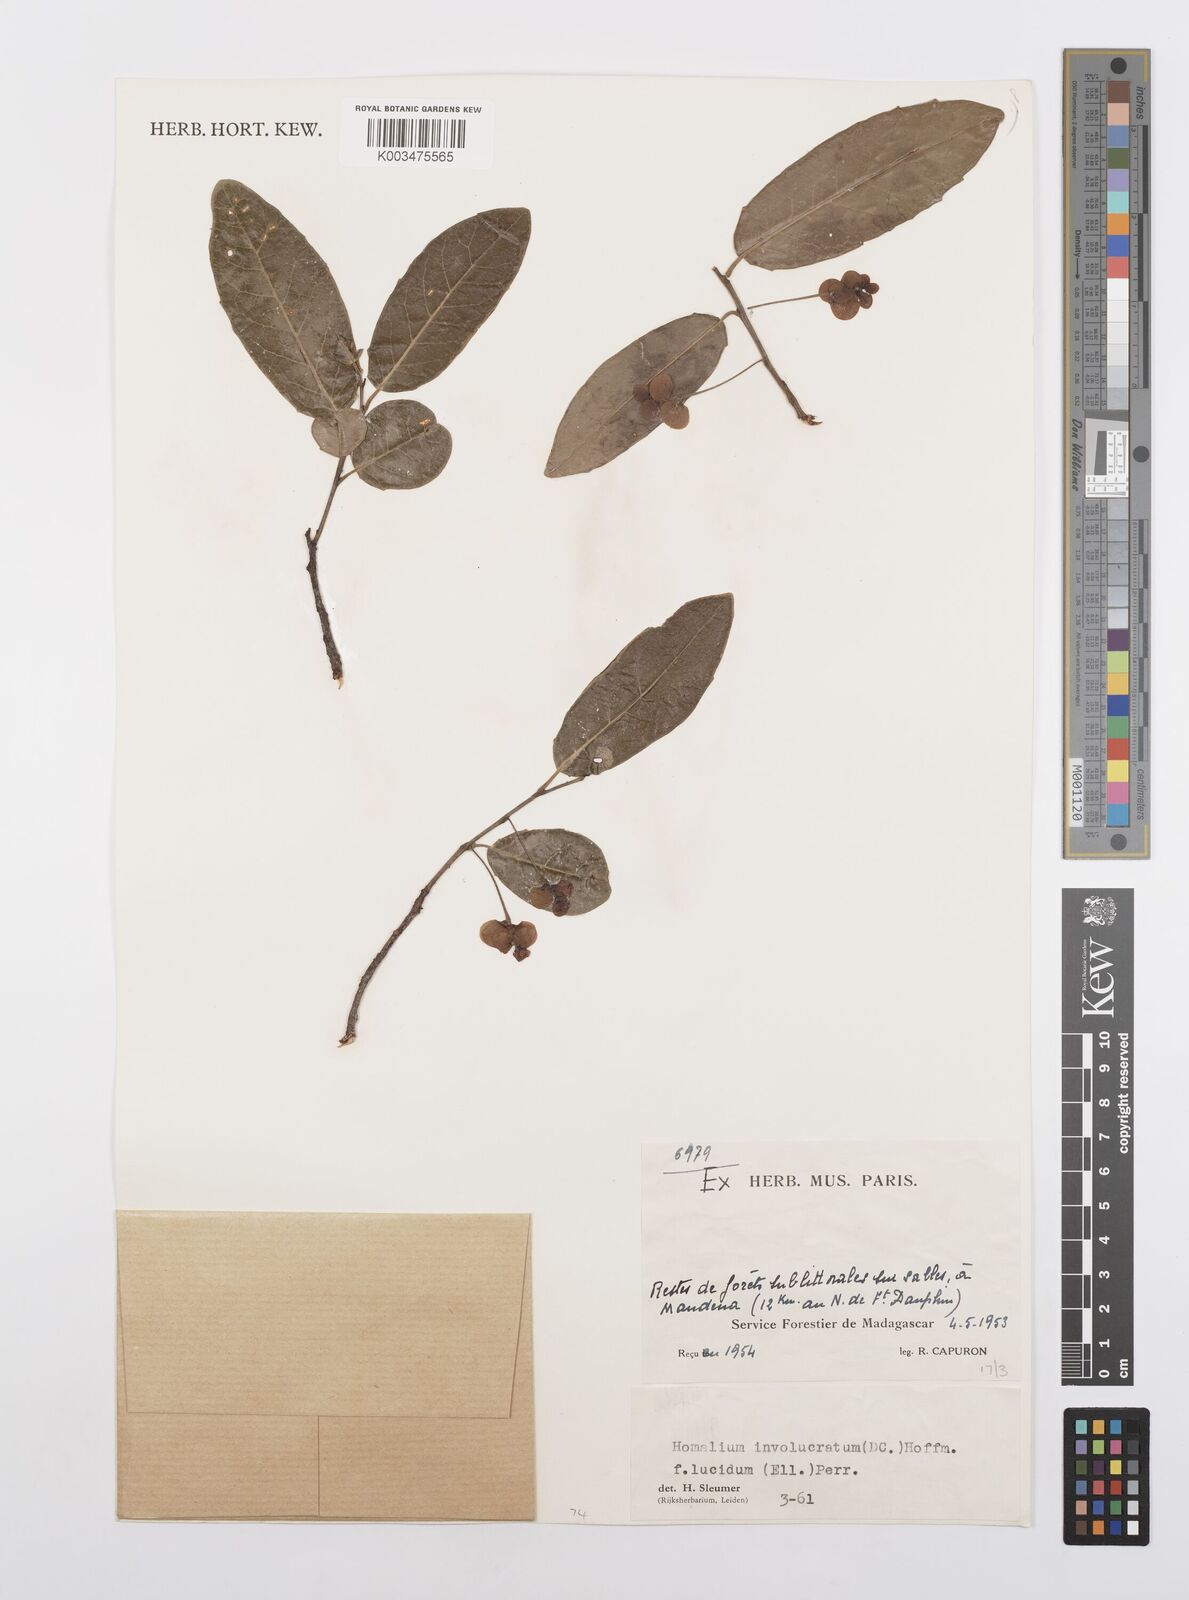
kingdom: Plantae
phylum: Tracheophyta
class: Magnoliopsida
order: Malpighiales
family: Salicaceae
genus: Homalium
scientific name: Homalium involucratum
